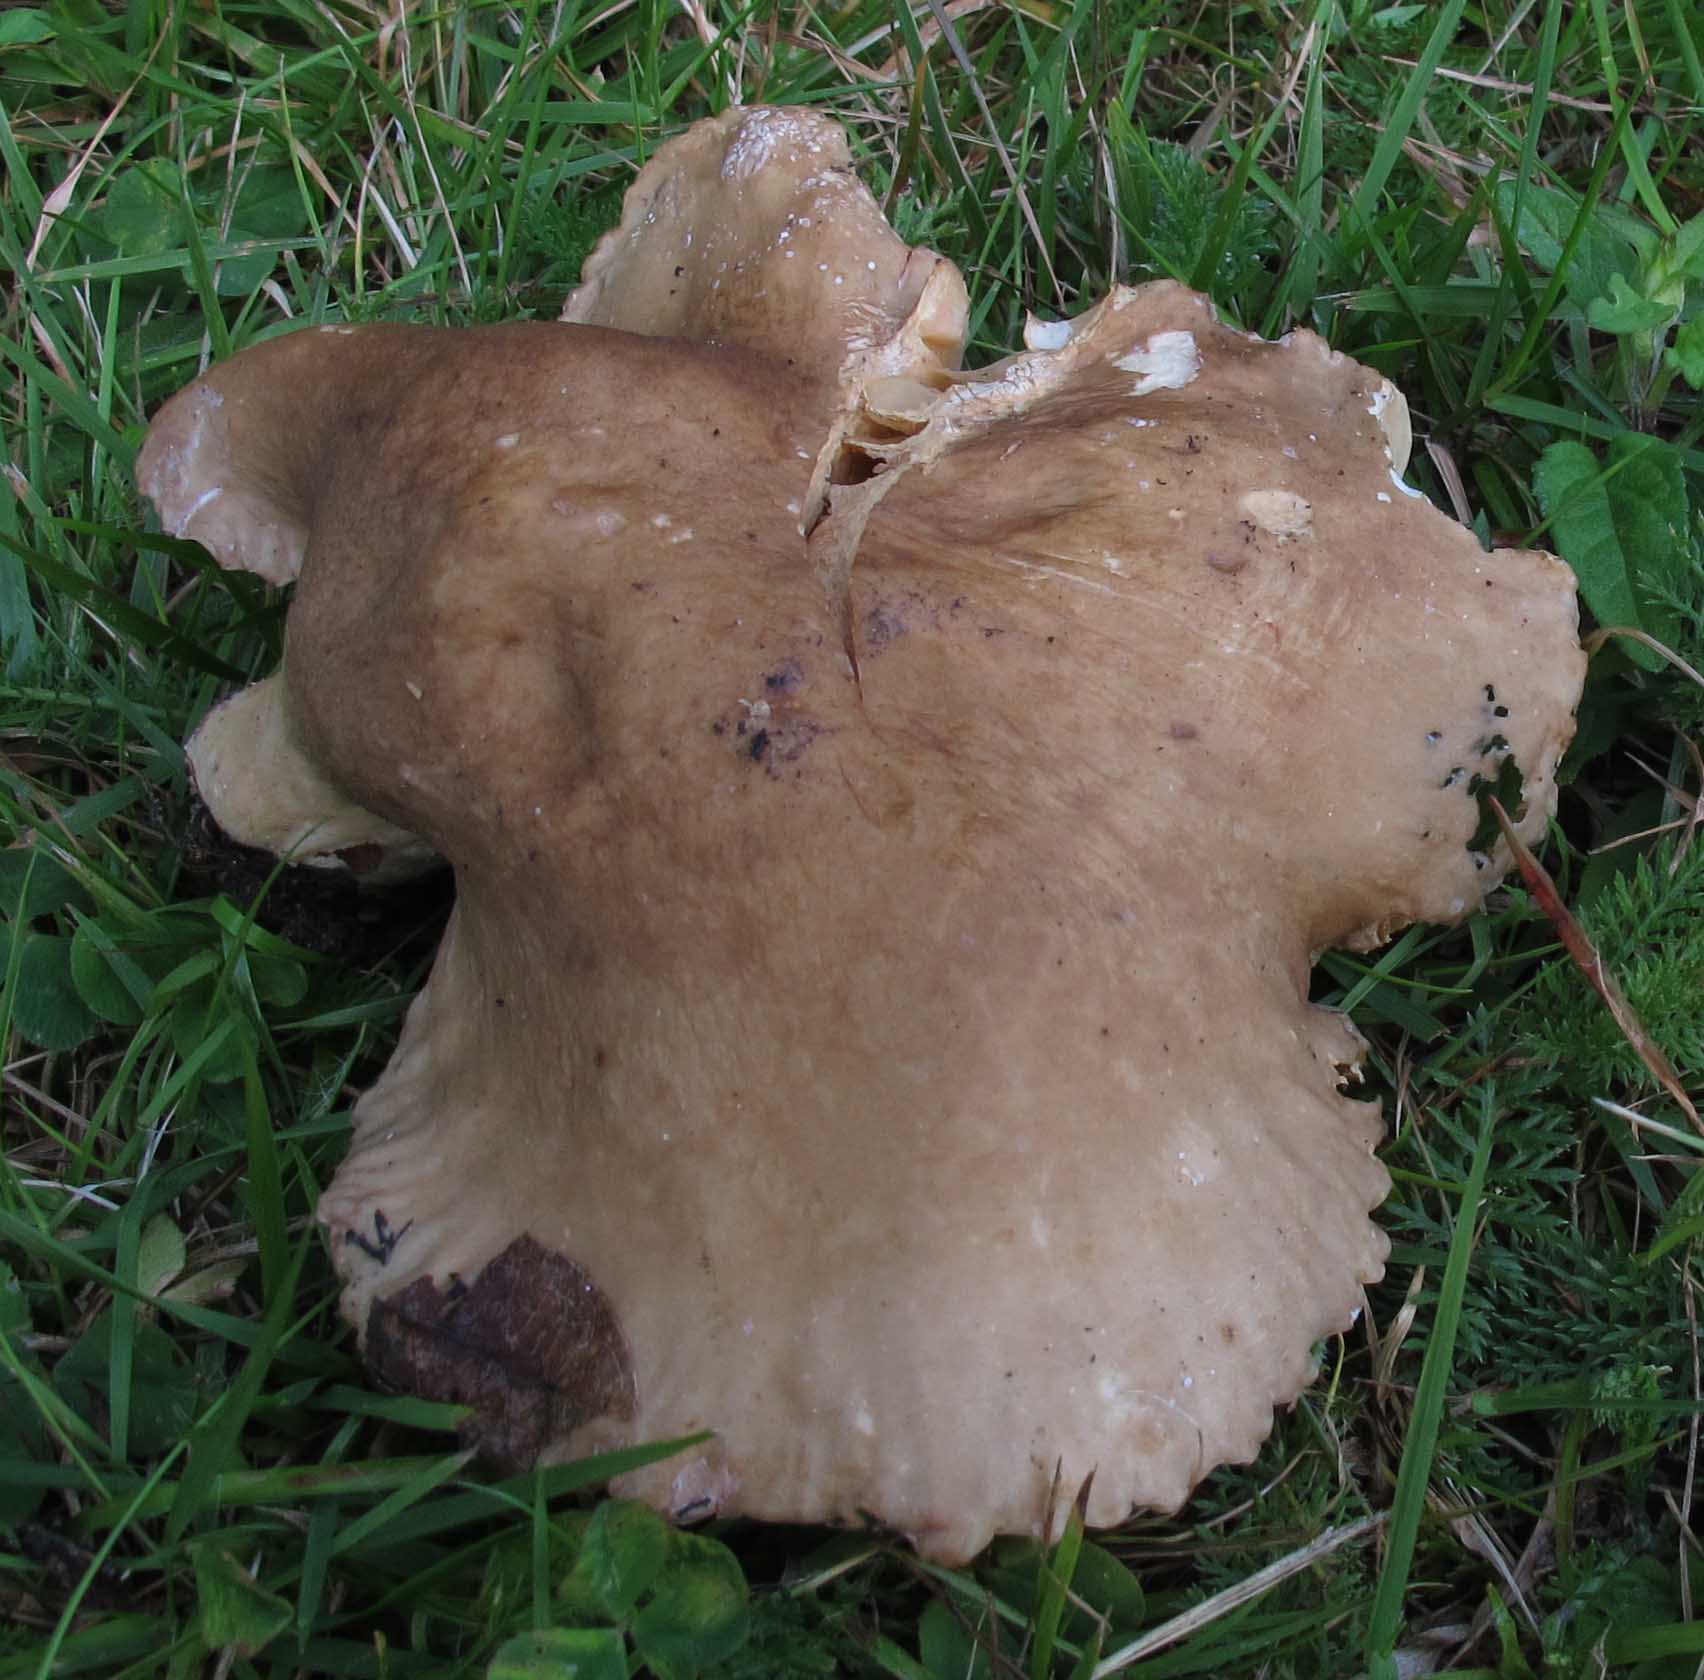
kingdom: Fungi
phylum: Basidiomycota
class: Agaricomycetes
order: Russulales
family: Russulaceae
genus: Lactarius
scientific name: Lactarius ruginosus
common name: gråbrun mælkehat
